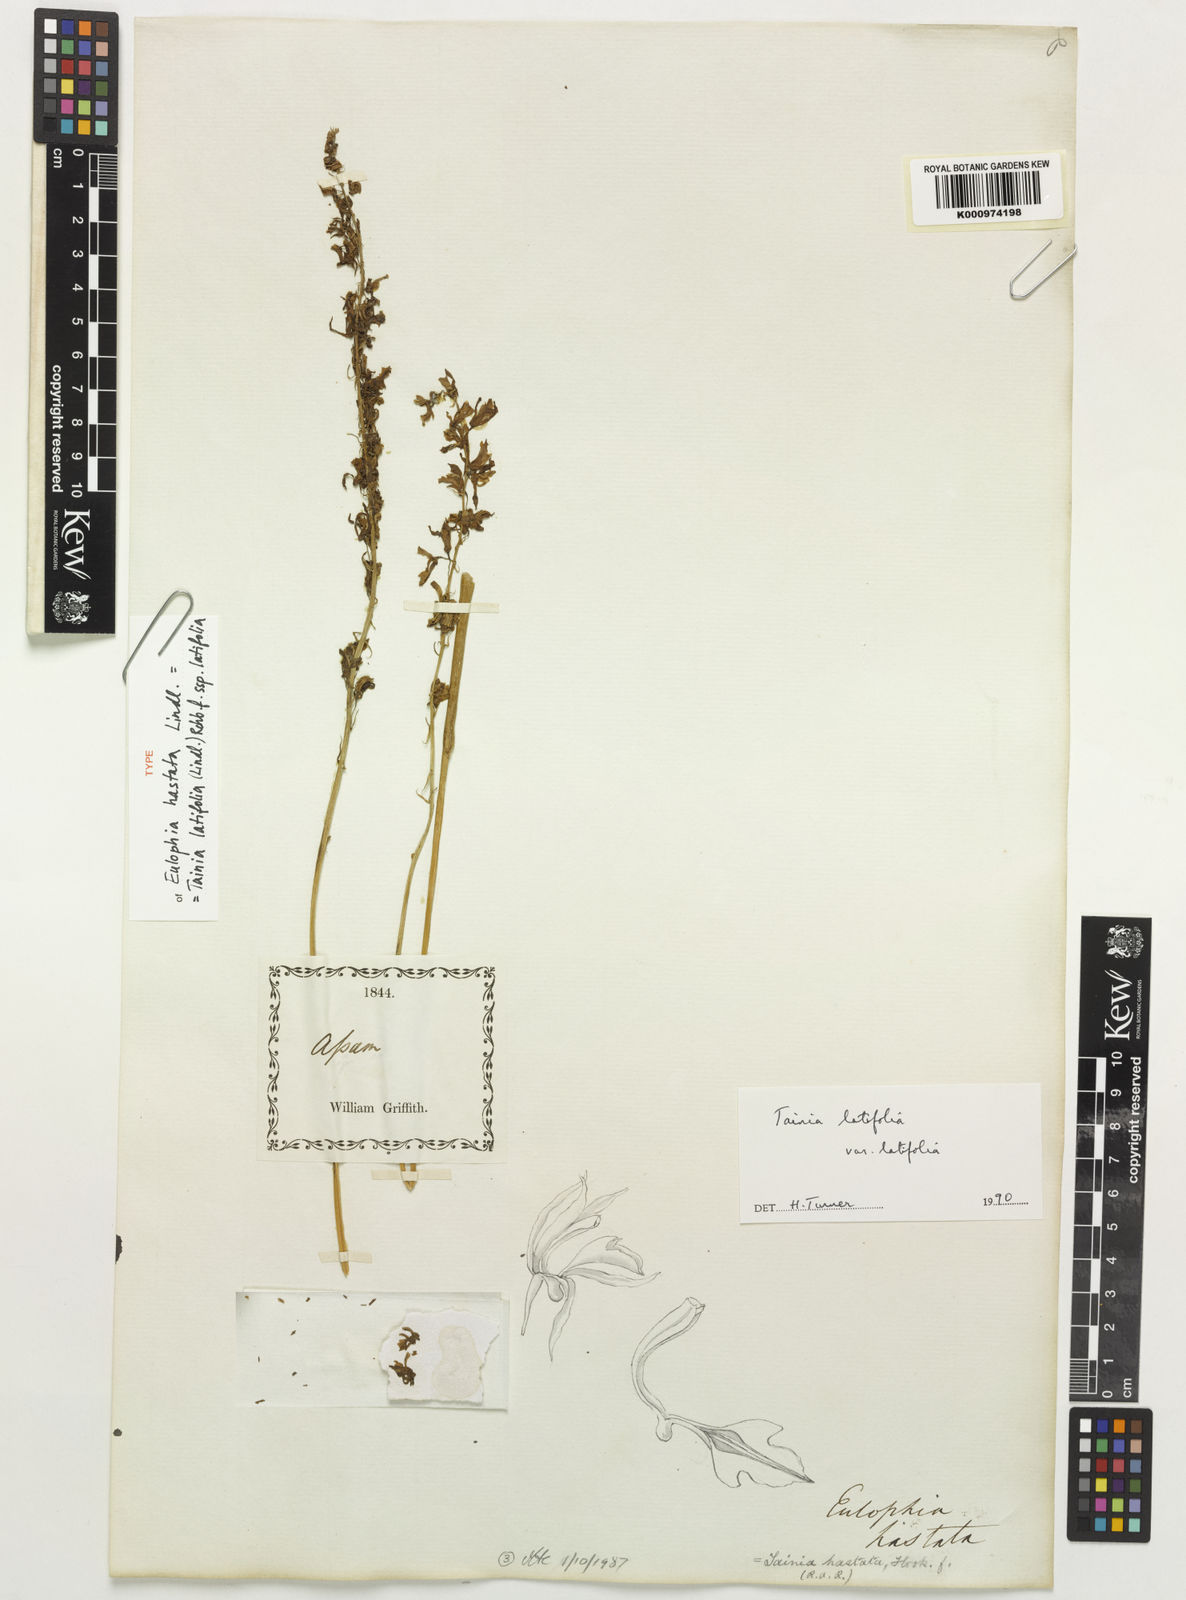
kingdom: Plantae
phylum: Tracheophyta
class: Liliopsida
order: Asparagales
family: Orchidaceae
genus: Tainia
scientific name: Tainia latifolia
